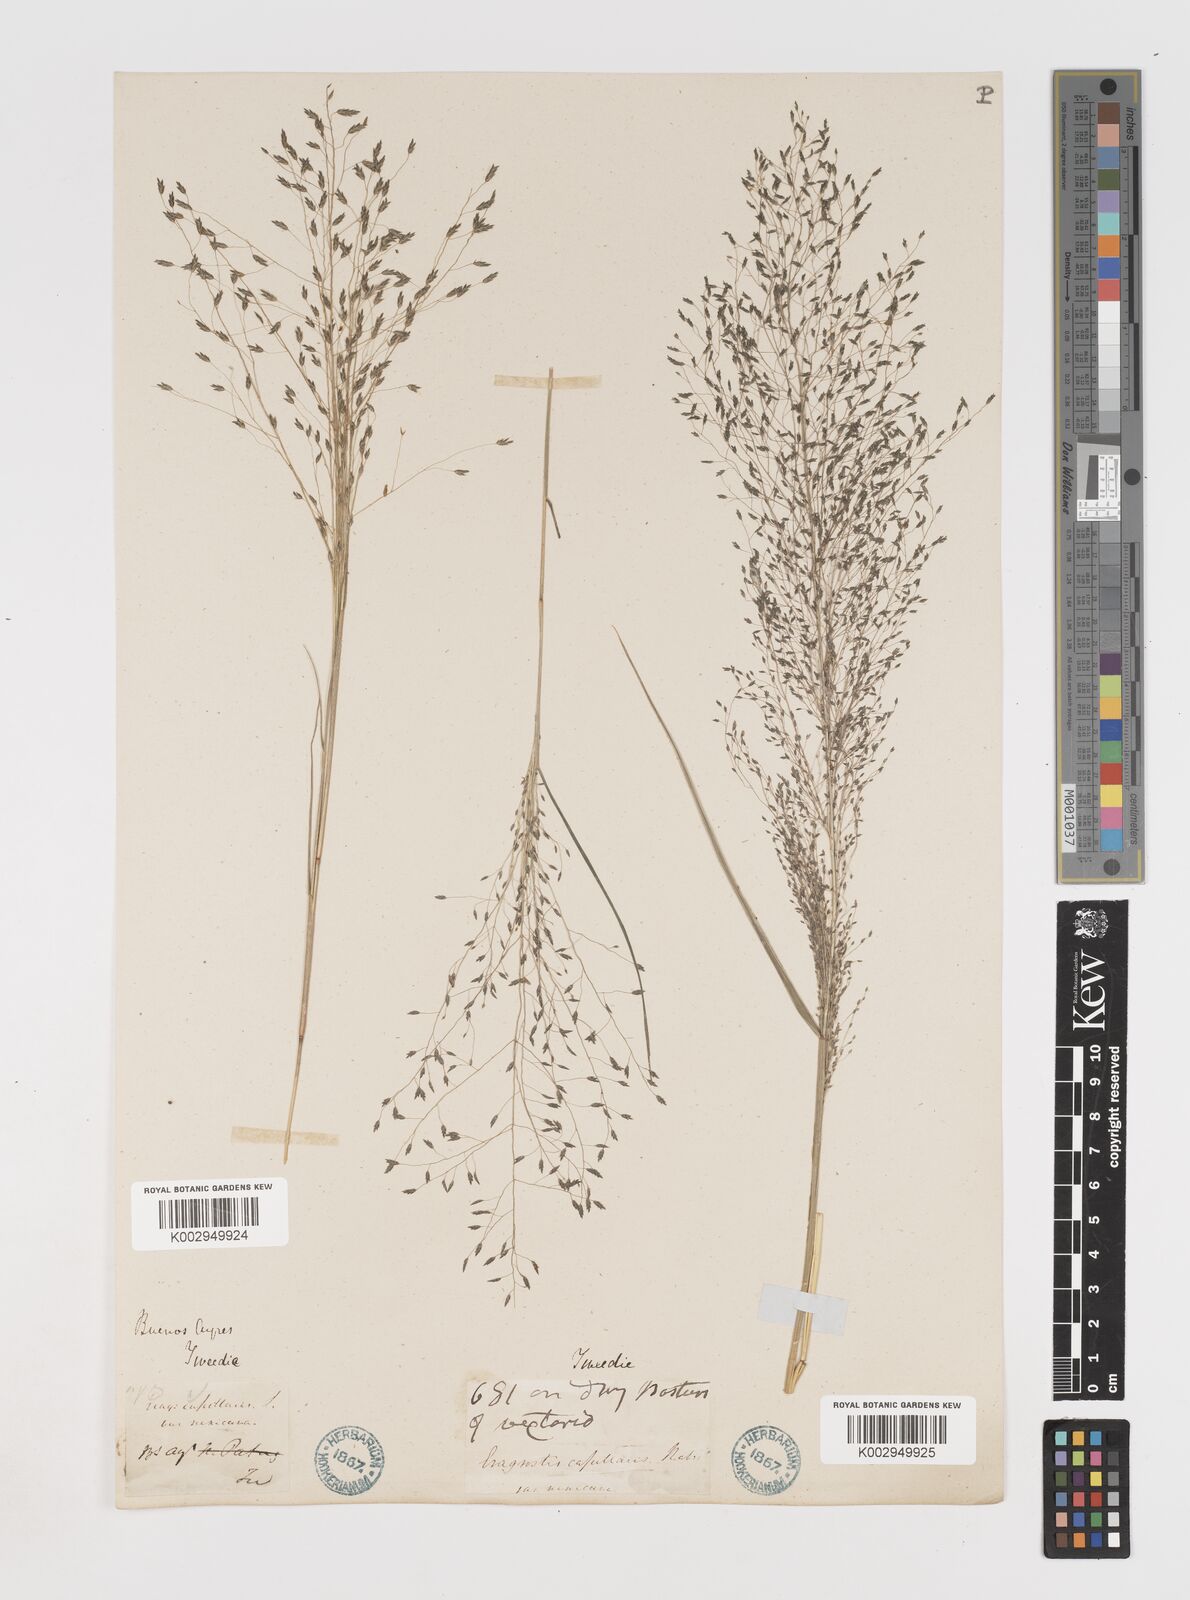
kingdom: Plantae
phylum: Tracheophyta
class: Liliopsida
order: Poales
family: Poaceae
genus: Eragrostis
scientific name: Eragrostis lugens
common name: Mourning love grass
